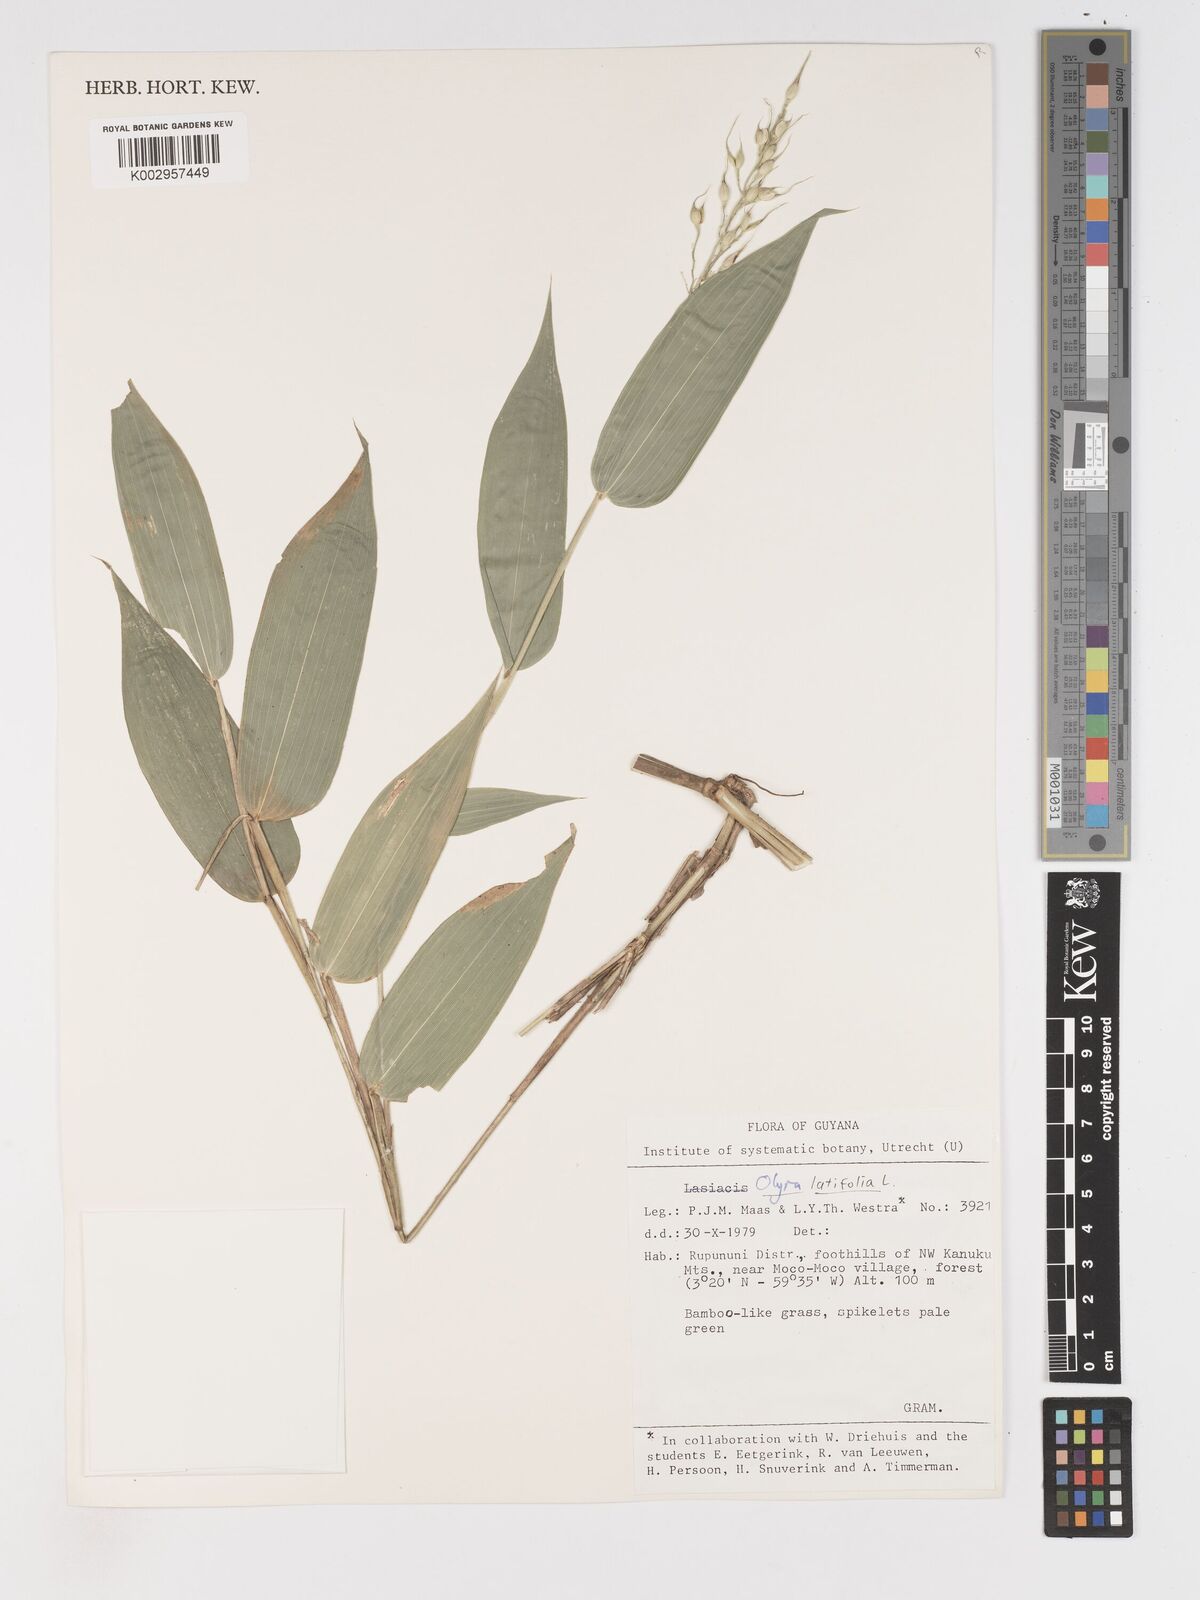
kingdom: Plantae
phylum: Tracheophyta
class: Liliopsida
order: Poales
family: Poaceae
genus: Olyra
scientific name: Olyra latifolia
